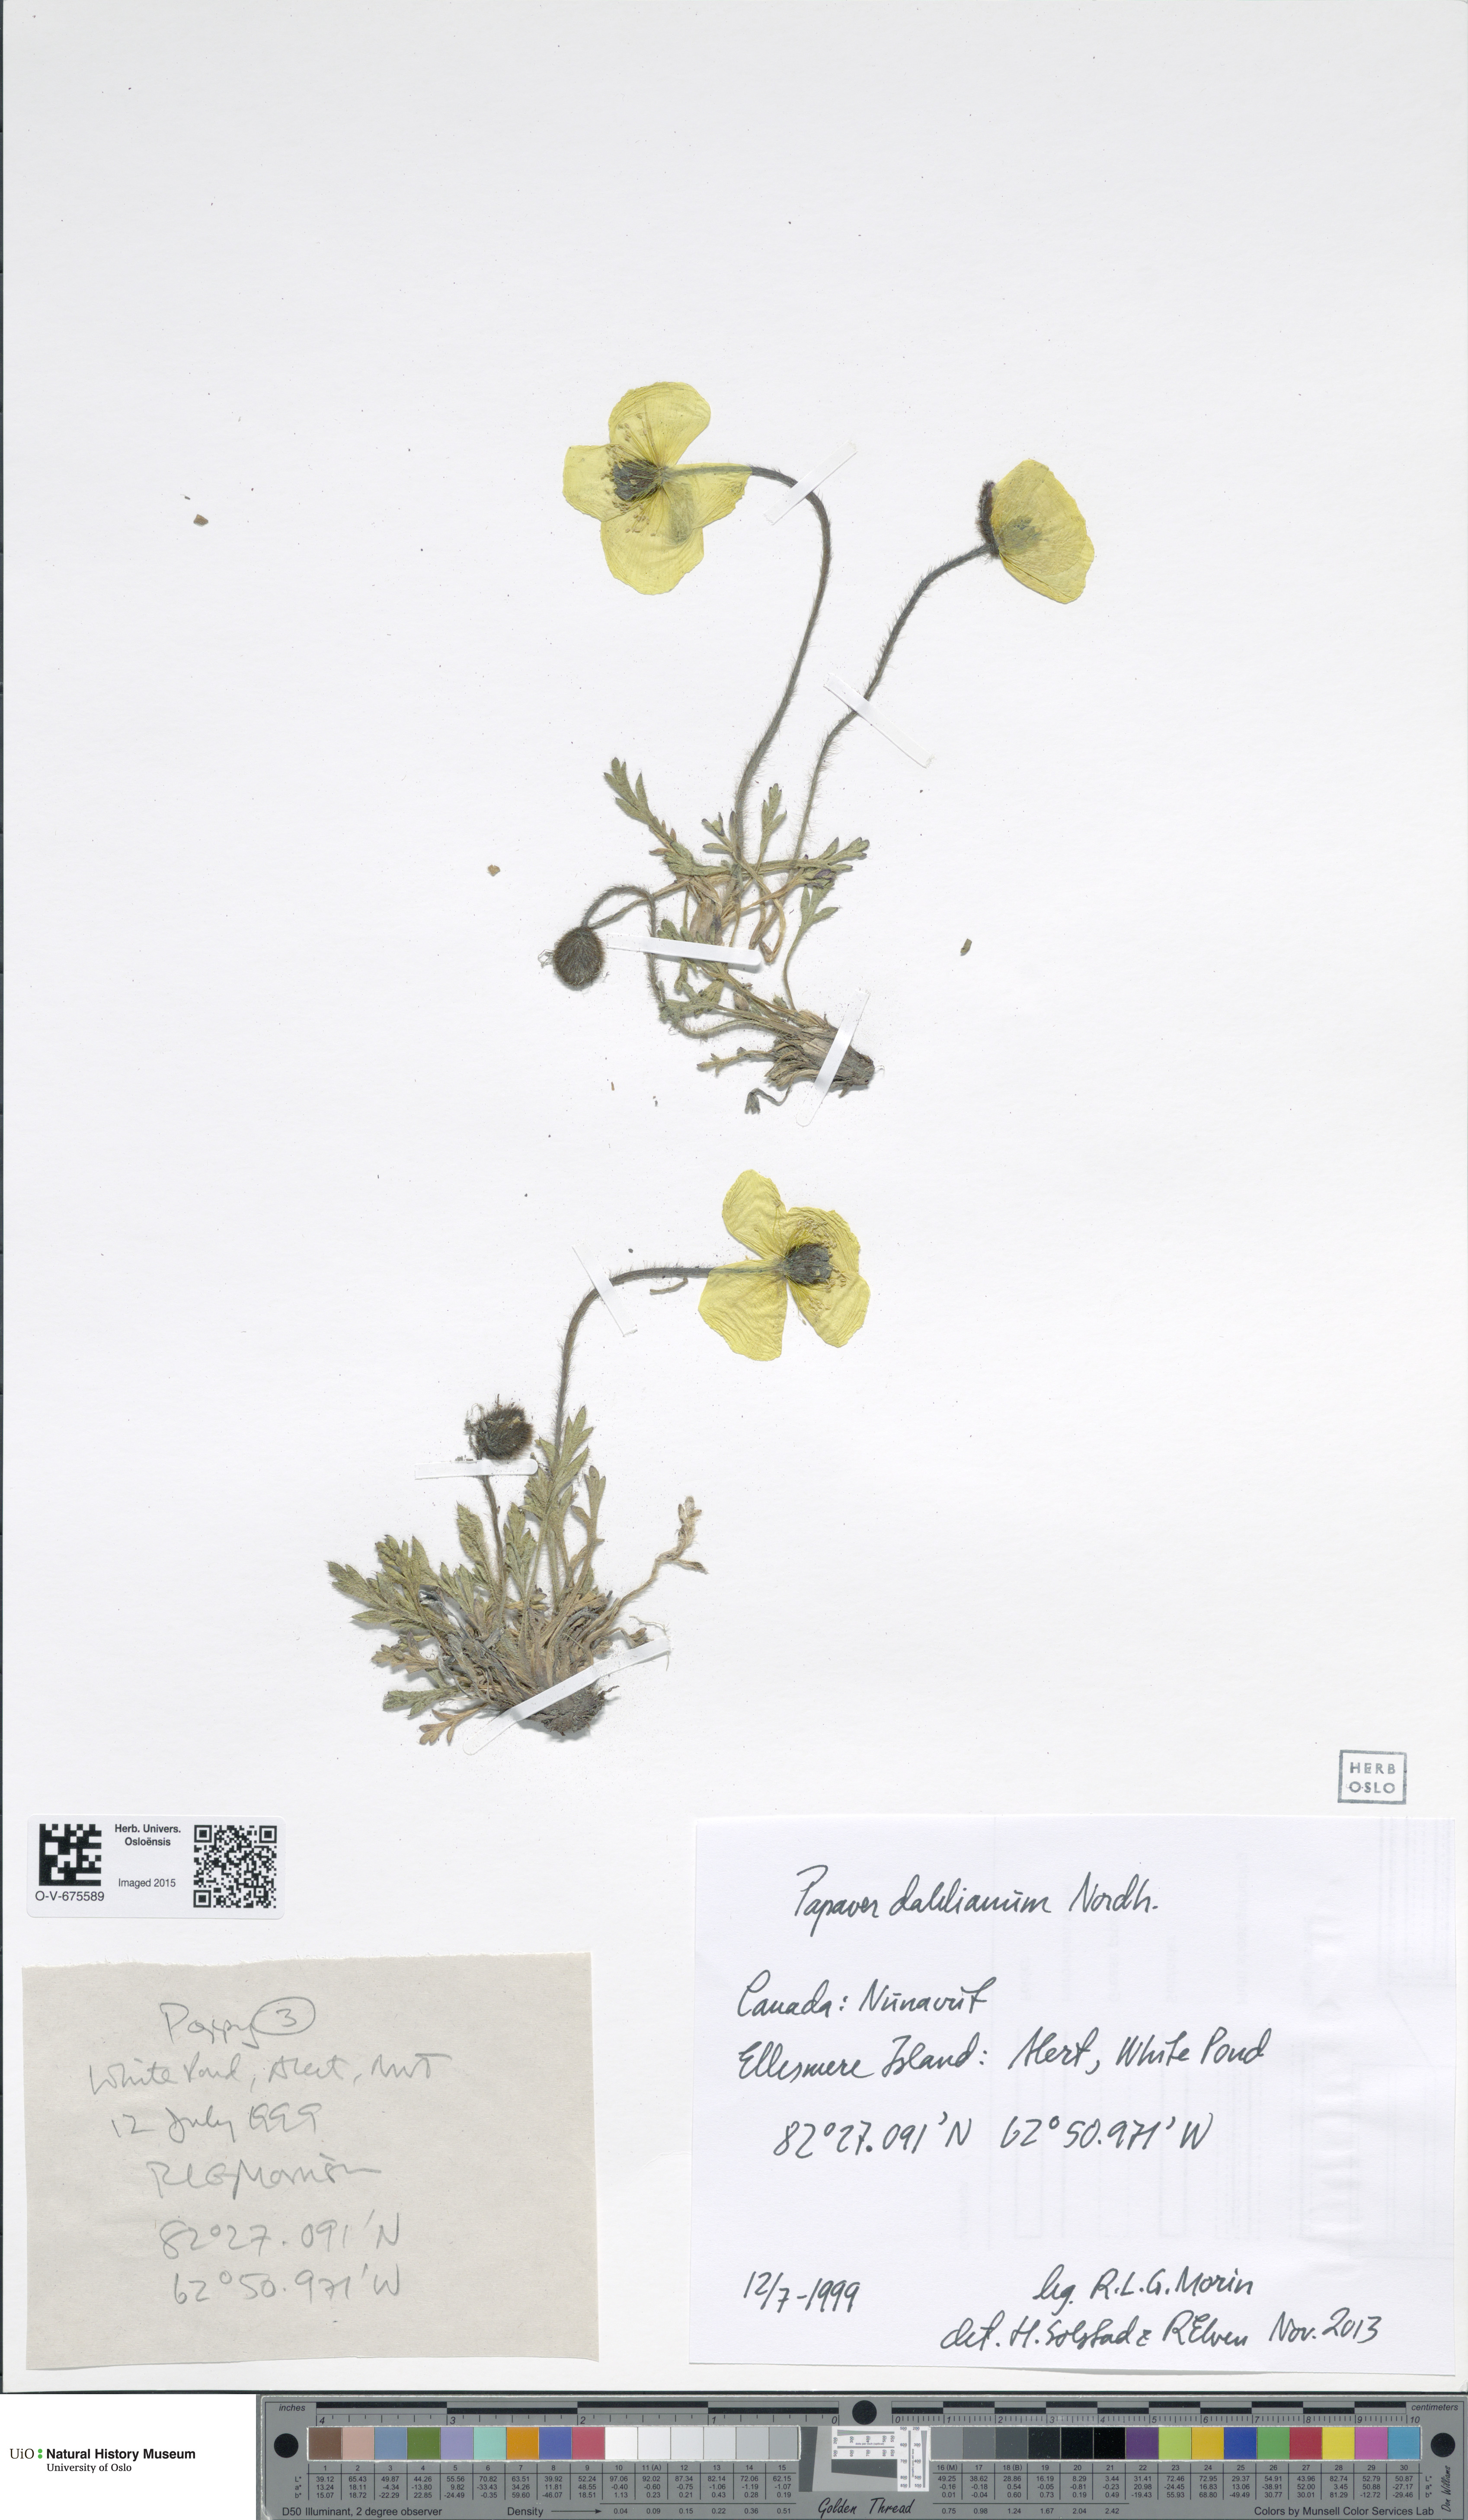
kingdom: Plantae
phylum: Tracheophyta
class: Magnoliopsida
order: Ranunculales
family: Papaveraceae
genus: Papaver
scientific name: Papaver radicatum
